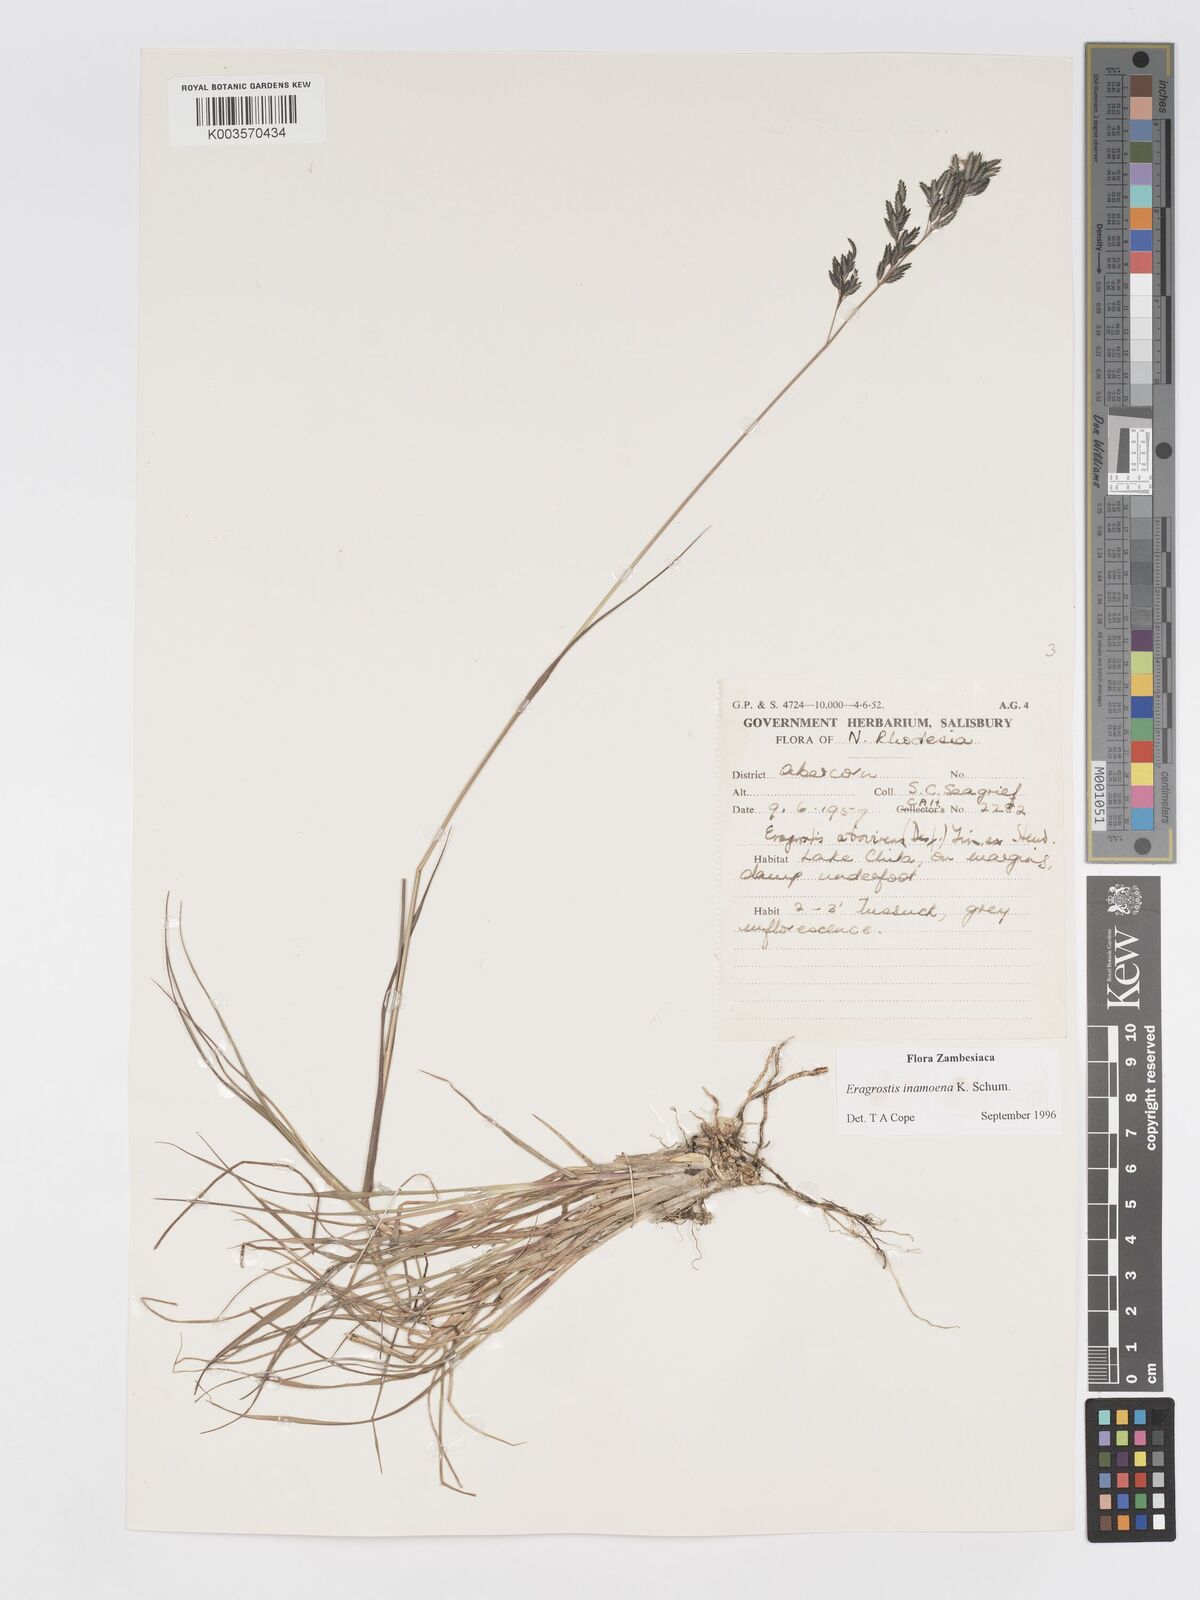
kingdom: Plantae
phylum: Tracheophyta
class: Liliopsida
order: Poales
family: Poaceae
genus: Eragrostis
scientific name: Eragrostis inamoena
